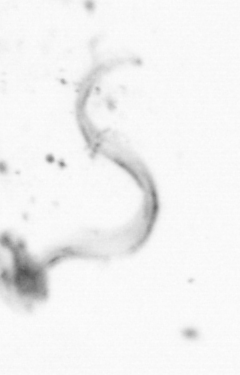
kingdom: Animalia
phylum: Chordata
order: Copelata
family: Fritillariidae
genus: Appendicularia
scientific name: Appendicularia
